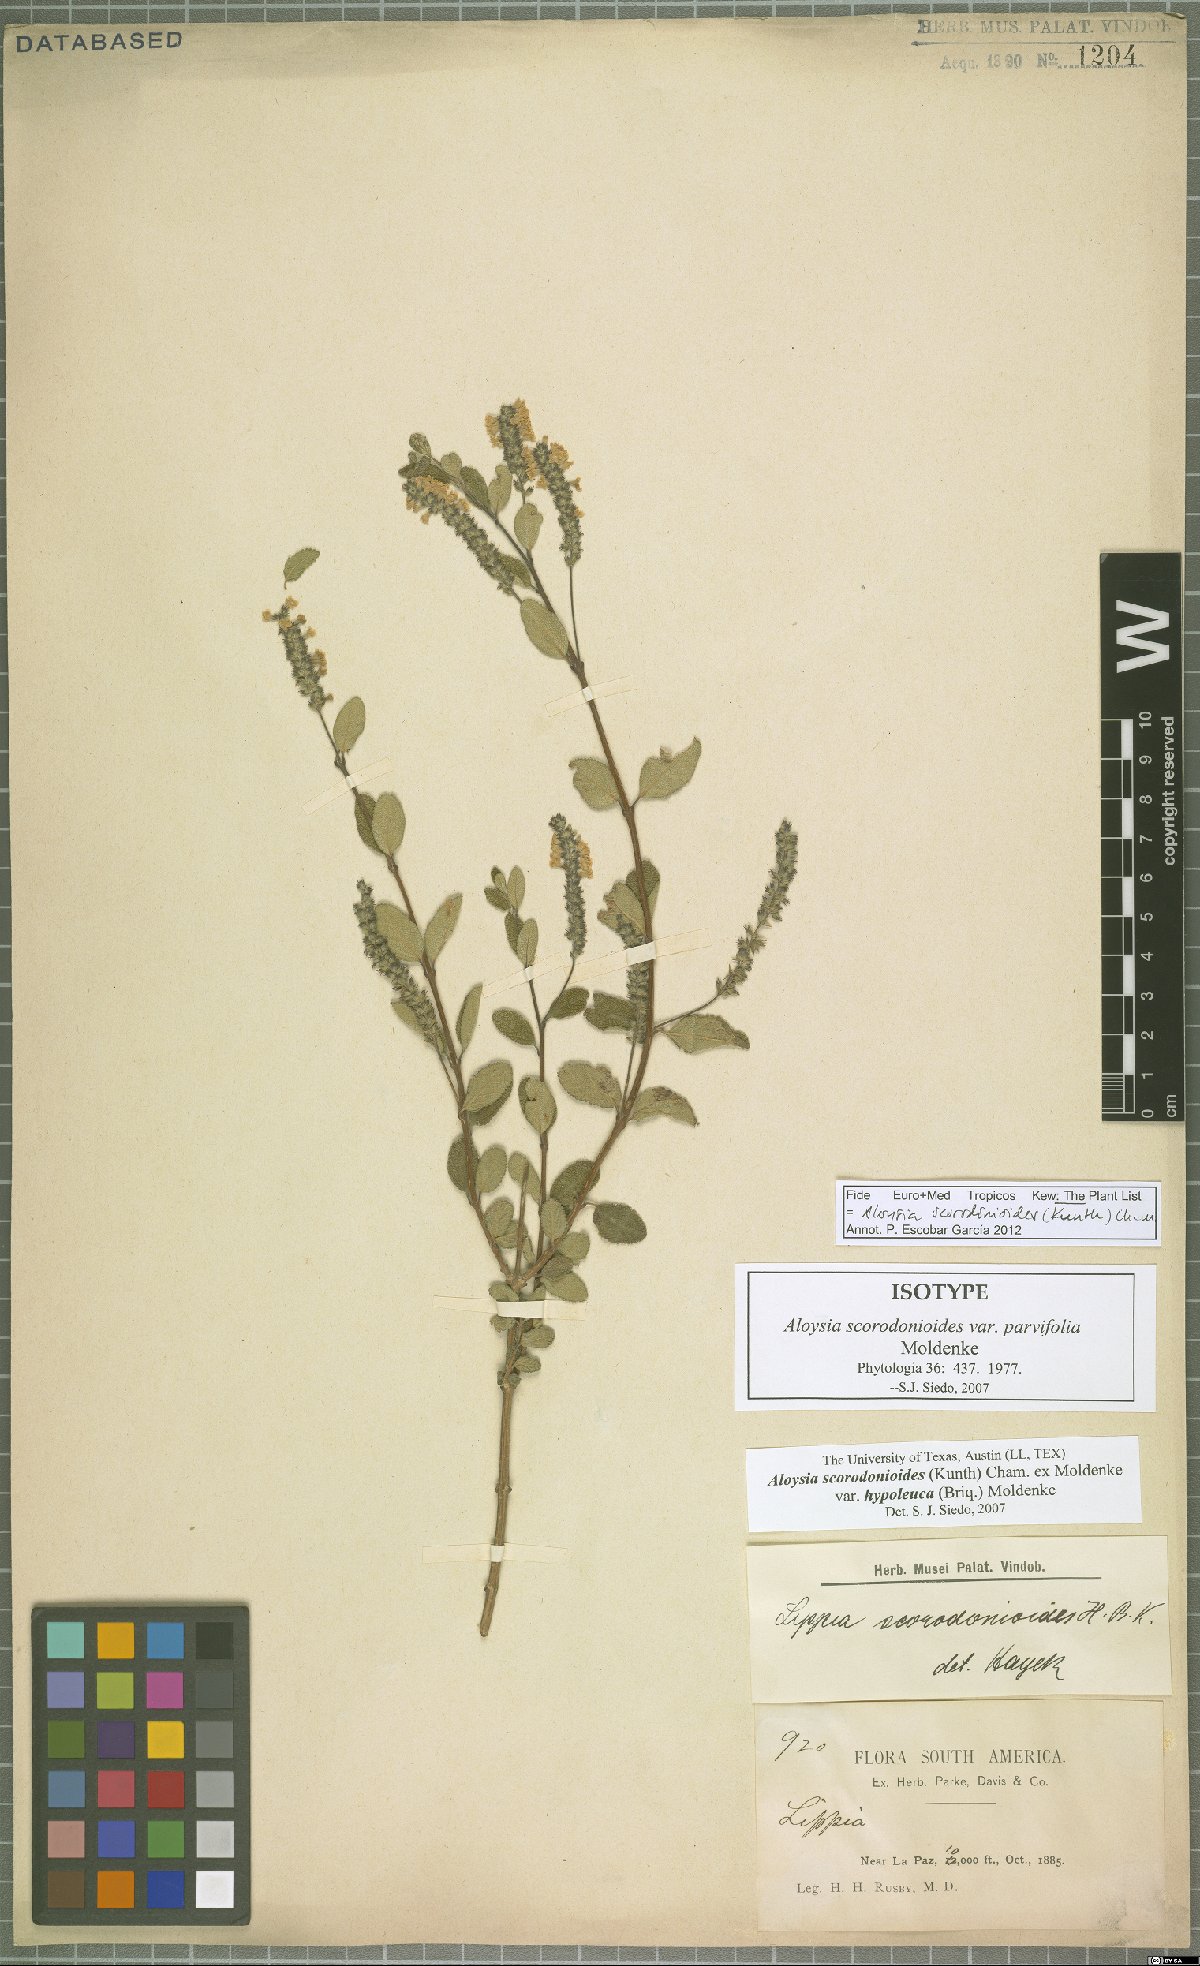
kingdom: Plantae
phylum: Tracheophyta
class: Magnoliopsida
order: Lamiales
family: Verbenaceae
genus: Aloysia
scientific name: Aloysia scorodonioides
